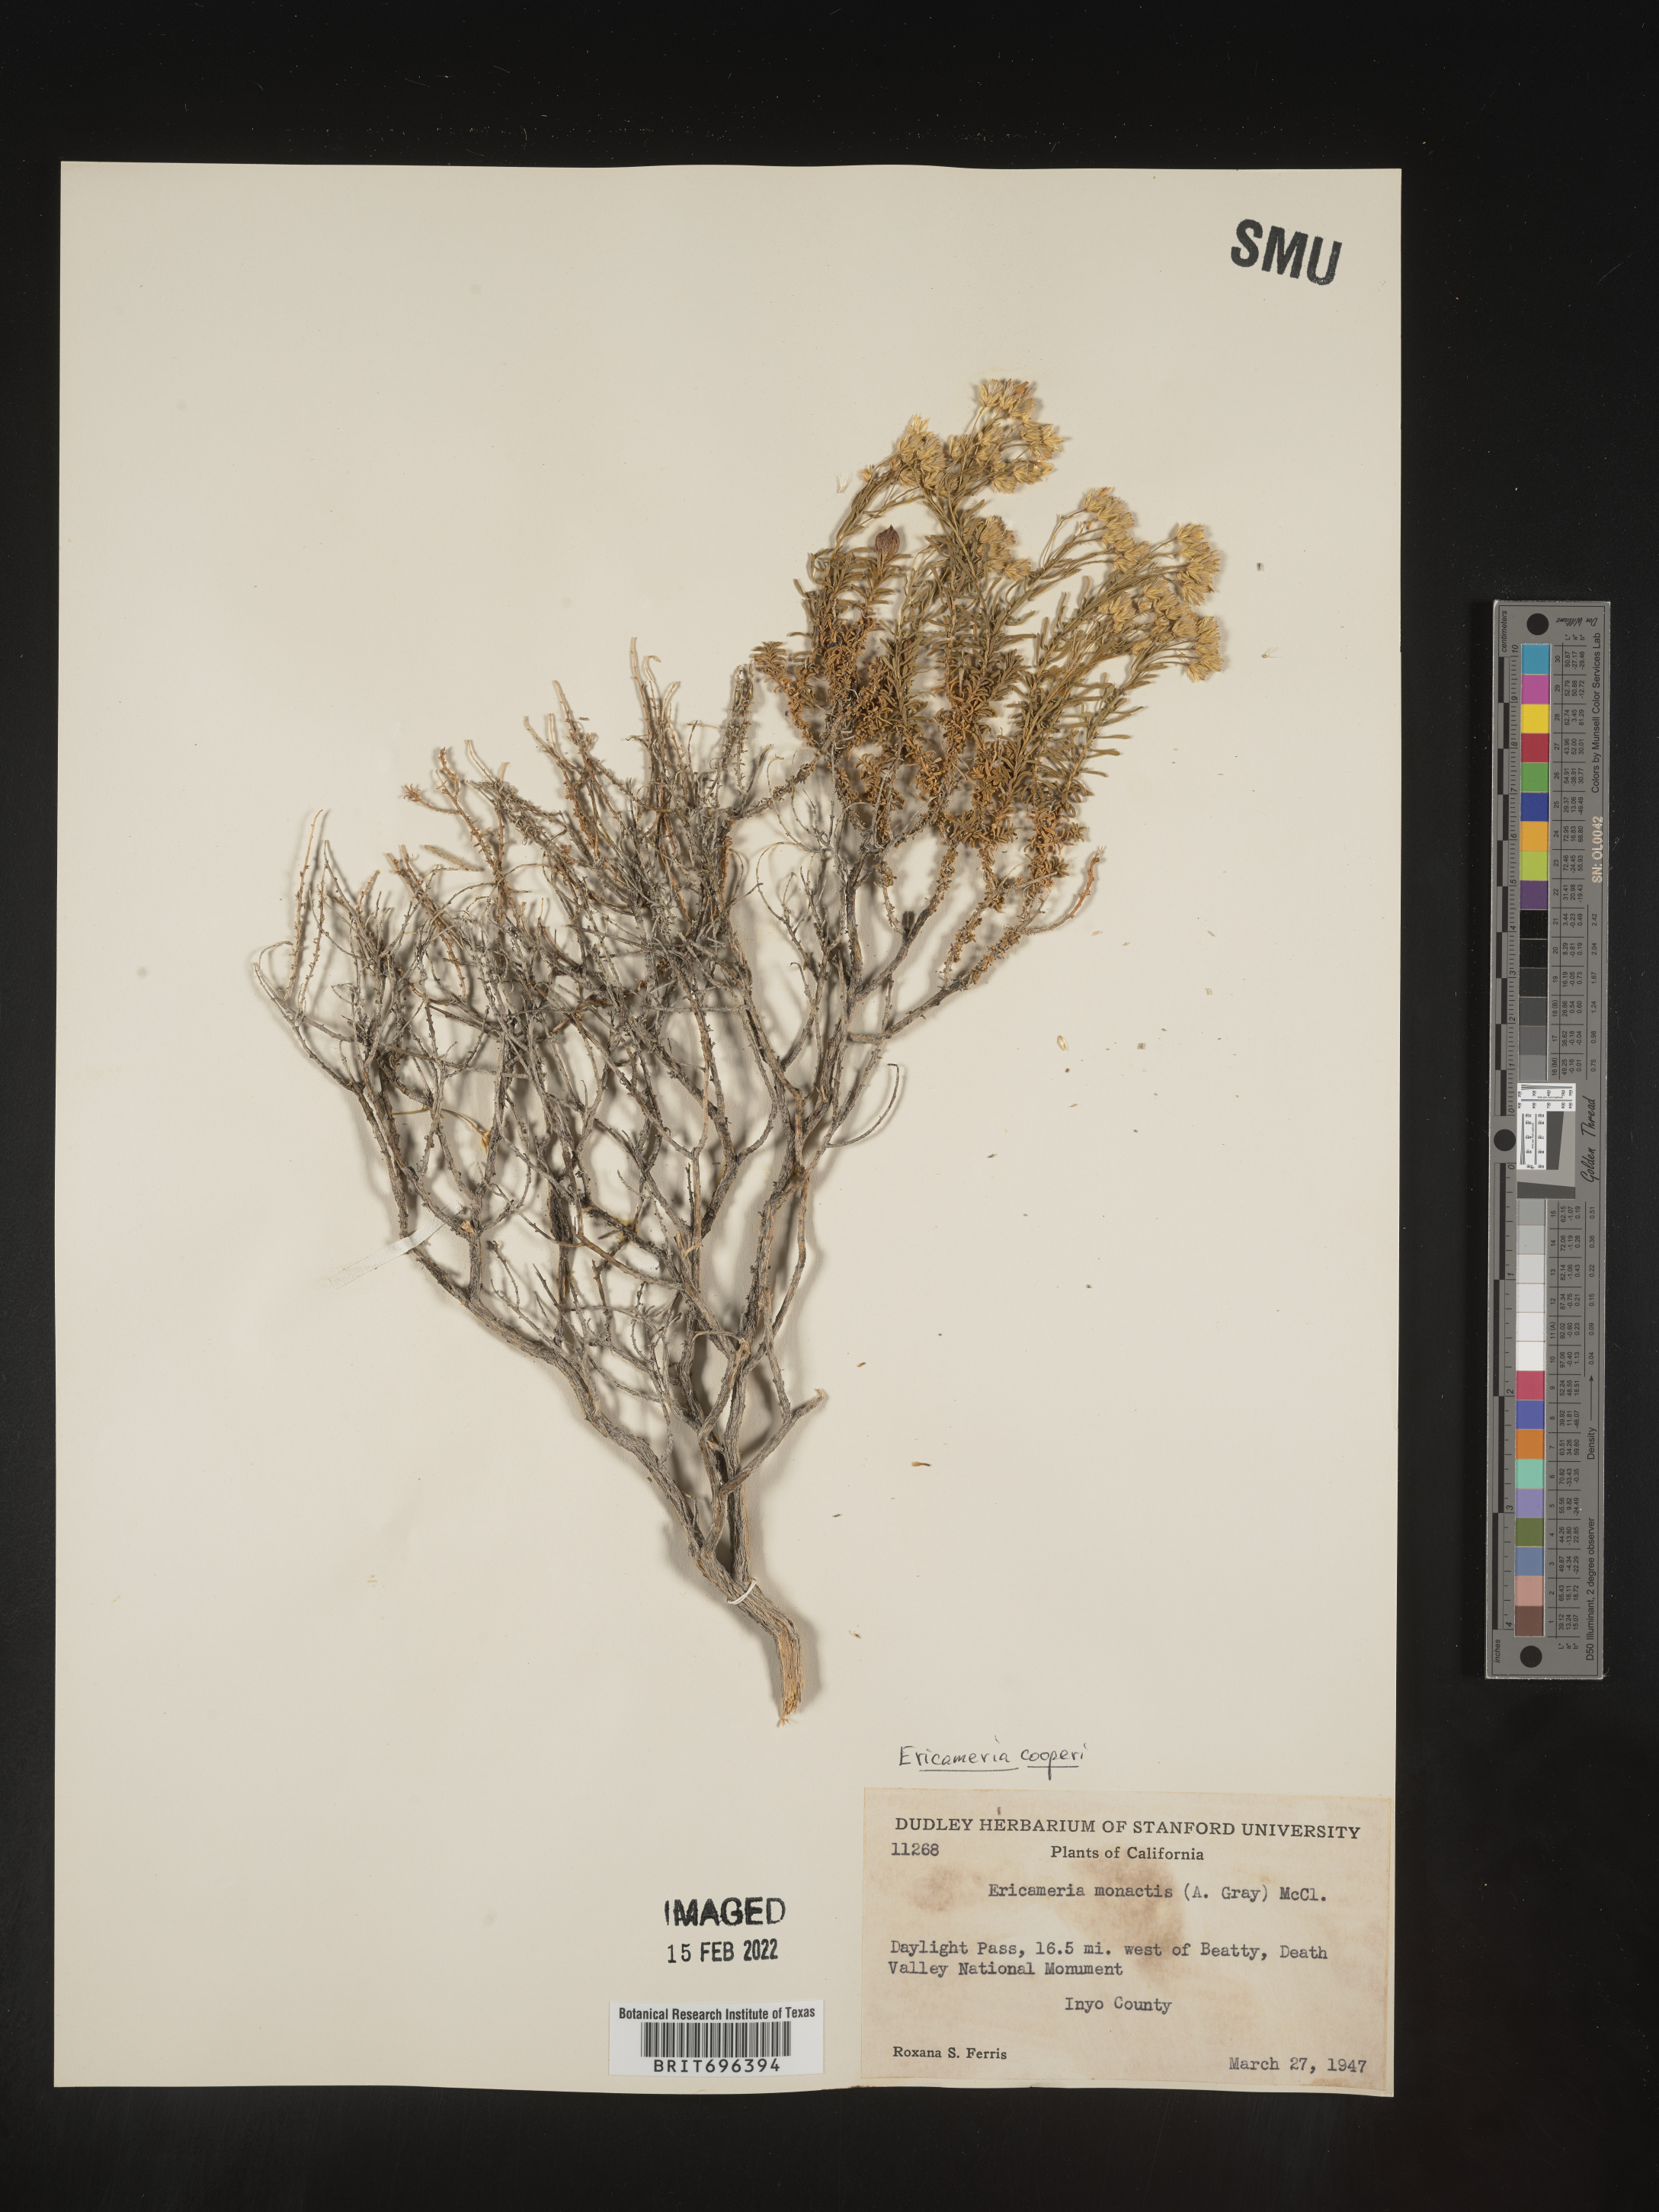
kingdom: Plantae
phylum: Tracheophyta
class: Magnoliopsida
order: Asterales
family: Asteraceae
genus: Ericameria
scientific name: Ericameria cooperi
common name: Cooper's goldenbush
